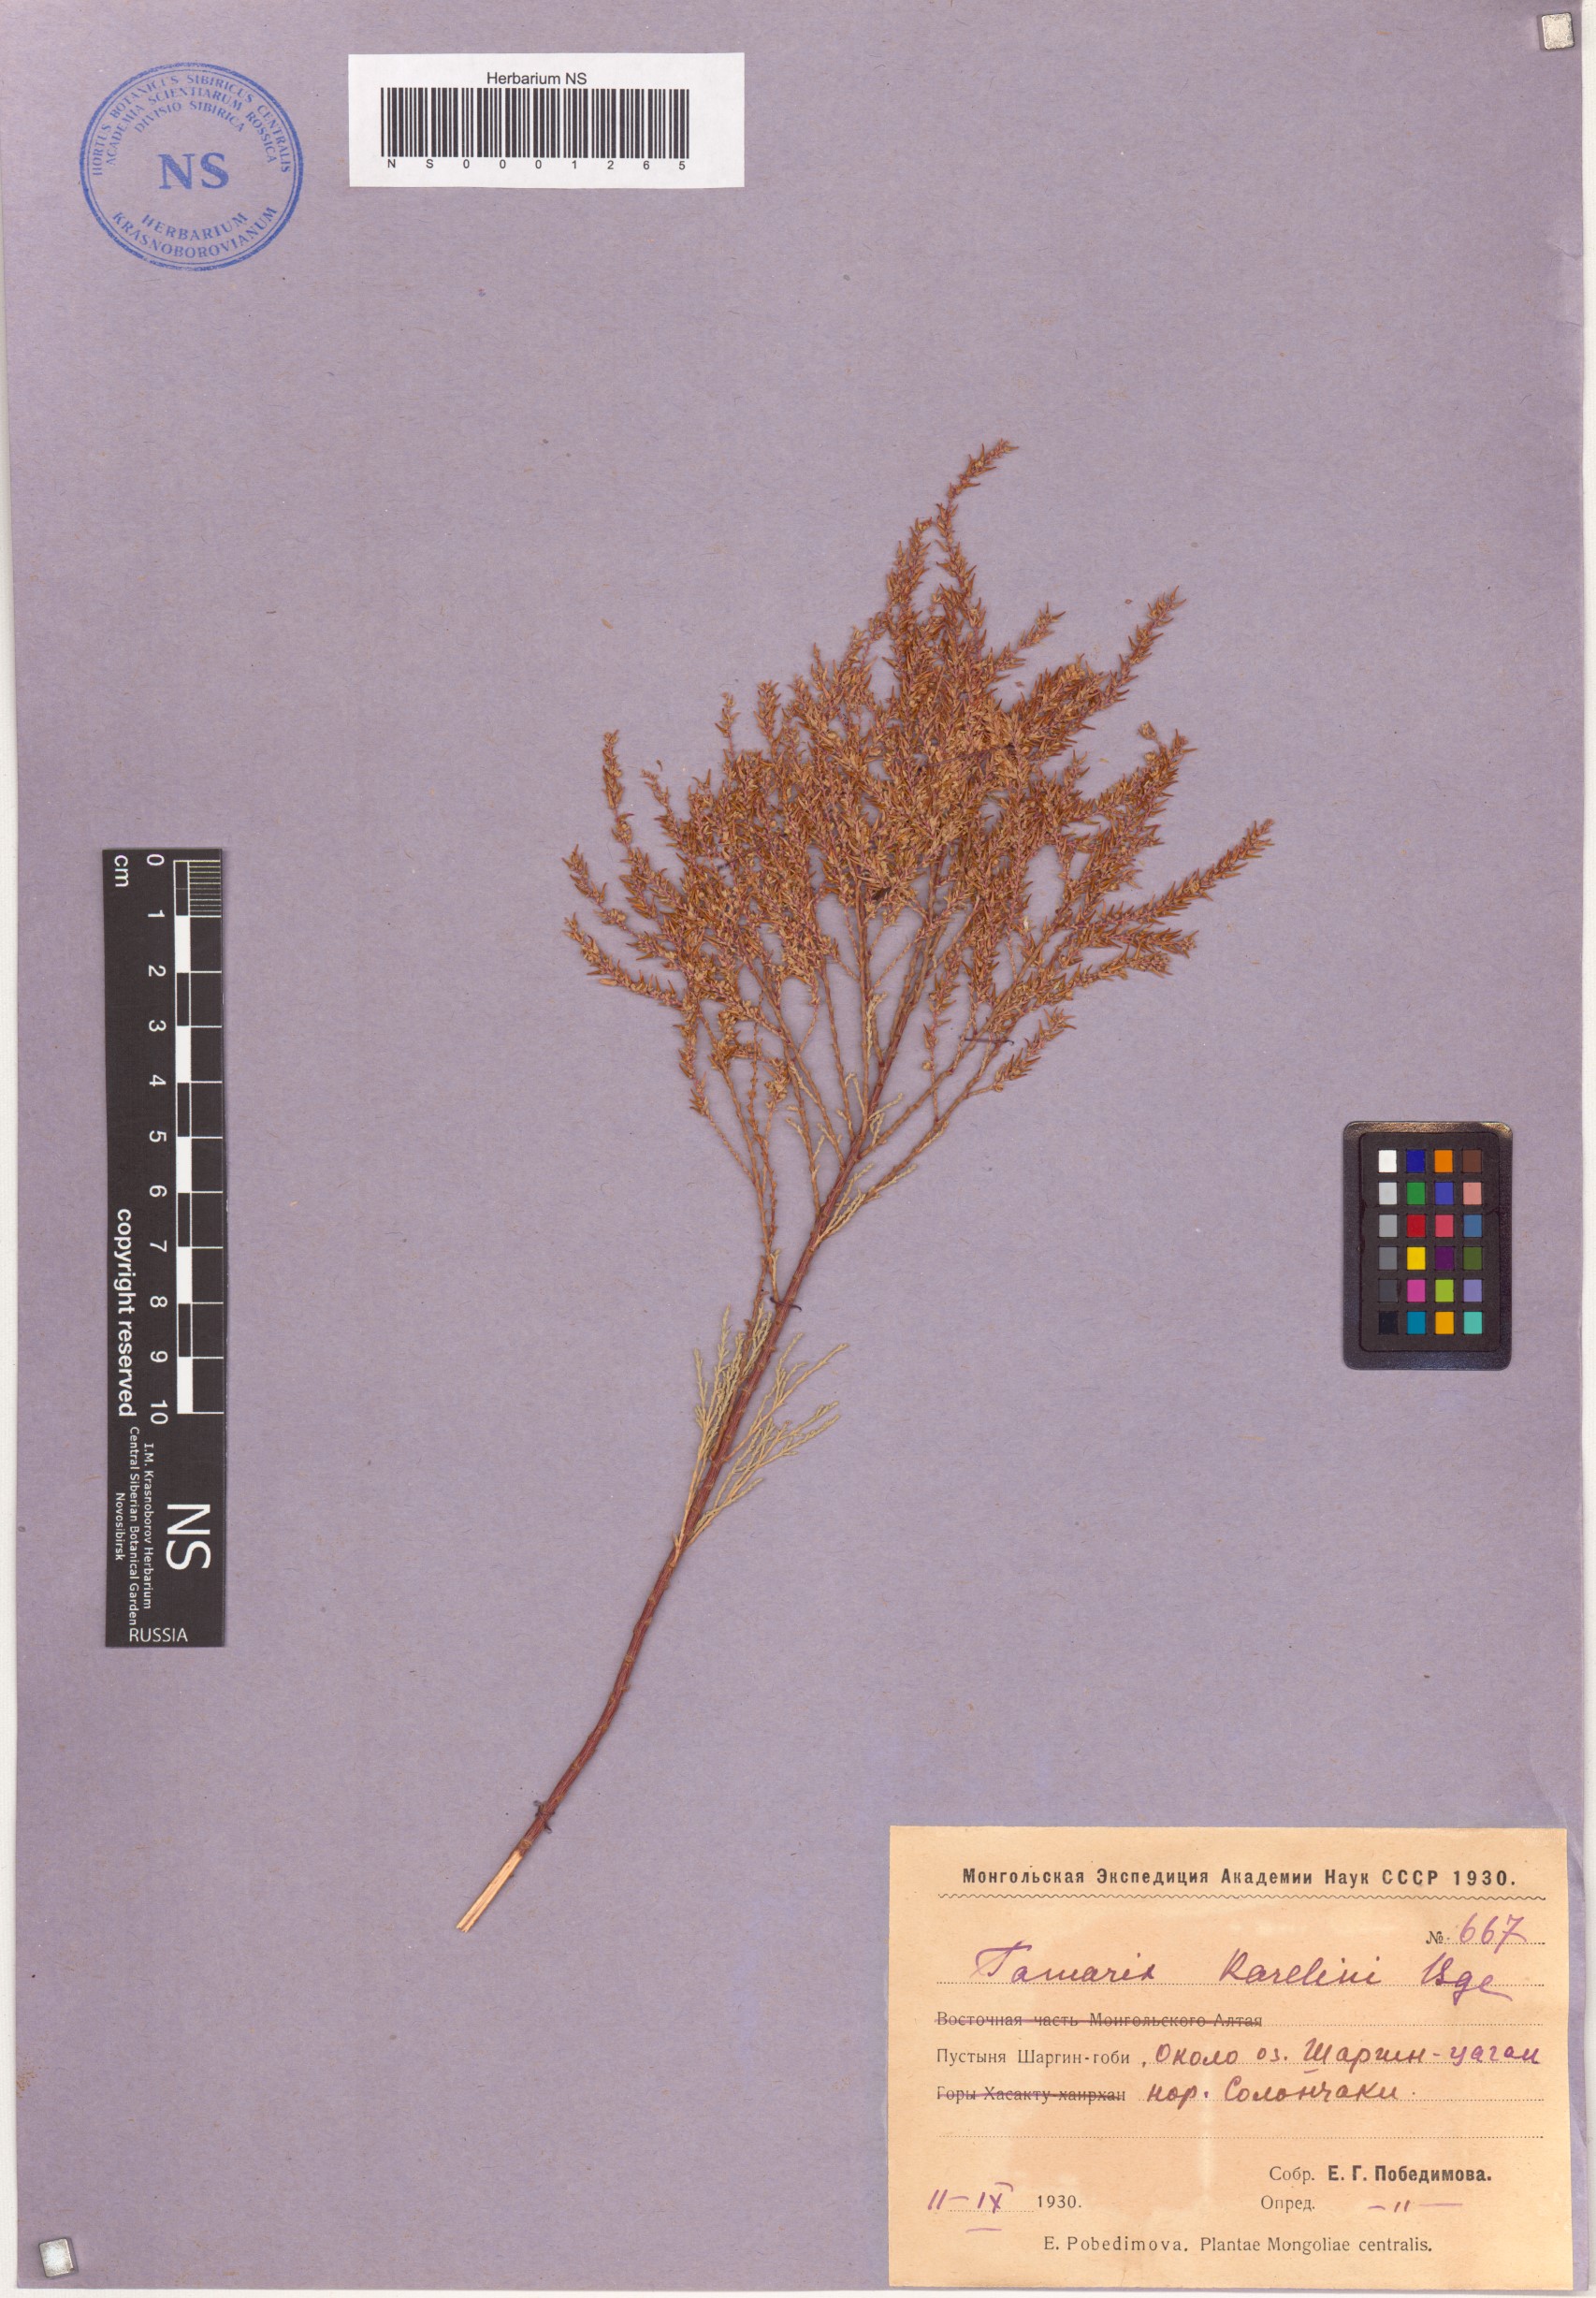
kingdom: Plantae
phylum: Tracheophyta
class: Magnoliopsida
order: Caryophyllales
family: Tamaricaceae
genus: Tamarix
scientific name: Tamarix karelinii
